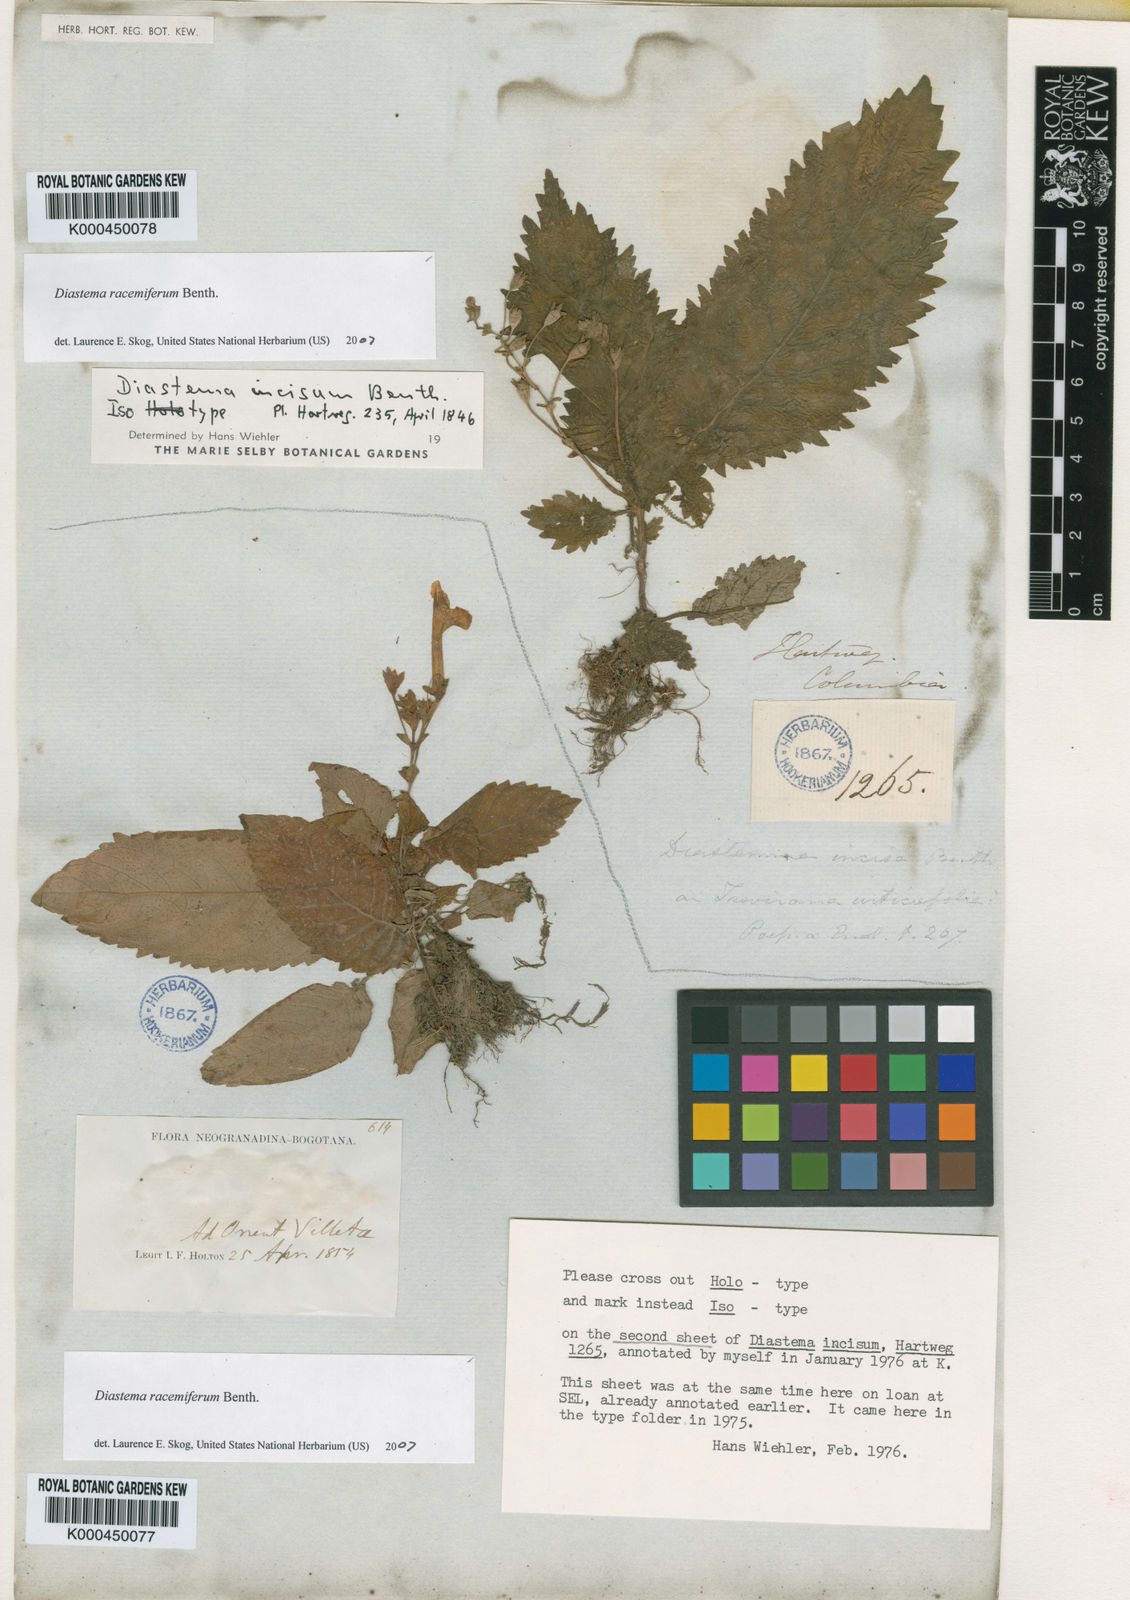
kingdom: Plantae
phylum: Tracheophyta
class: Magnoliopsida
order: Lamiales
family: Gesneriaceae
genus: Diastema
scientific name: Diastema racemiferum
